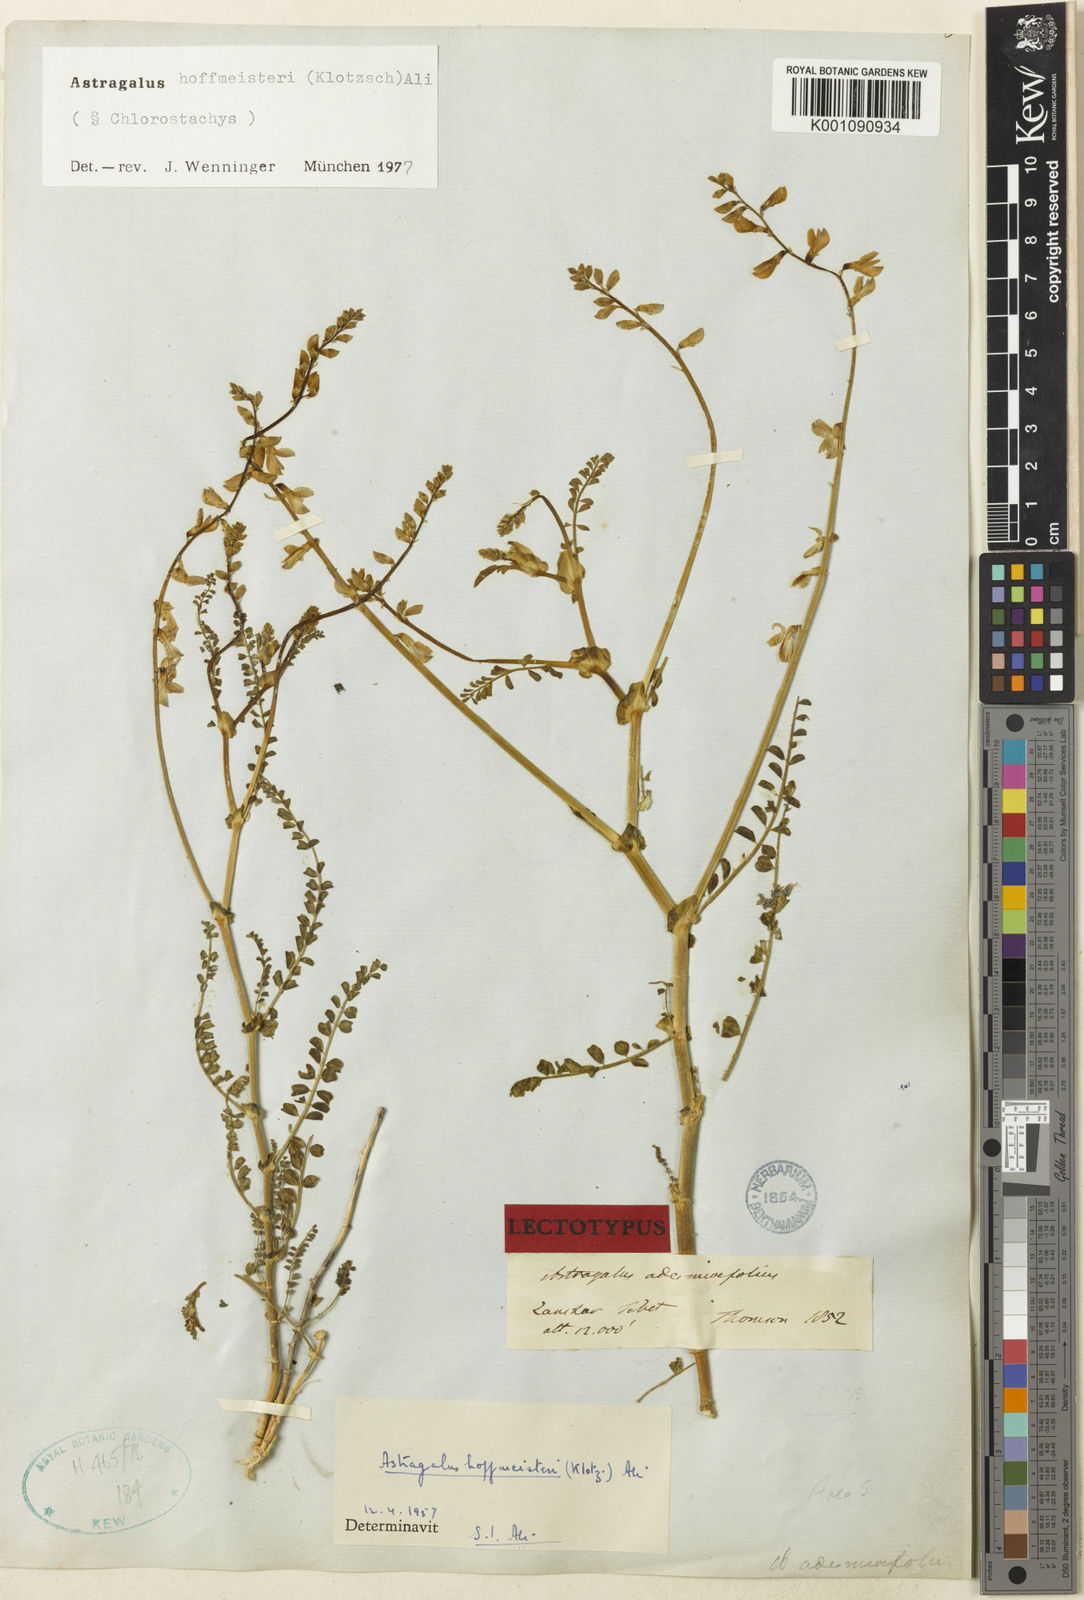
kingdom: Plantae
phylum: Tracheophyta
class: Magnoliopsida
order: Fabales
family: Fabaceae
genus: Astragalus
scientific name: Astragalus hoffmeisteri
